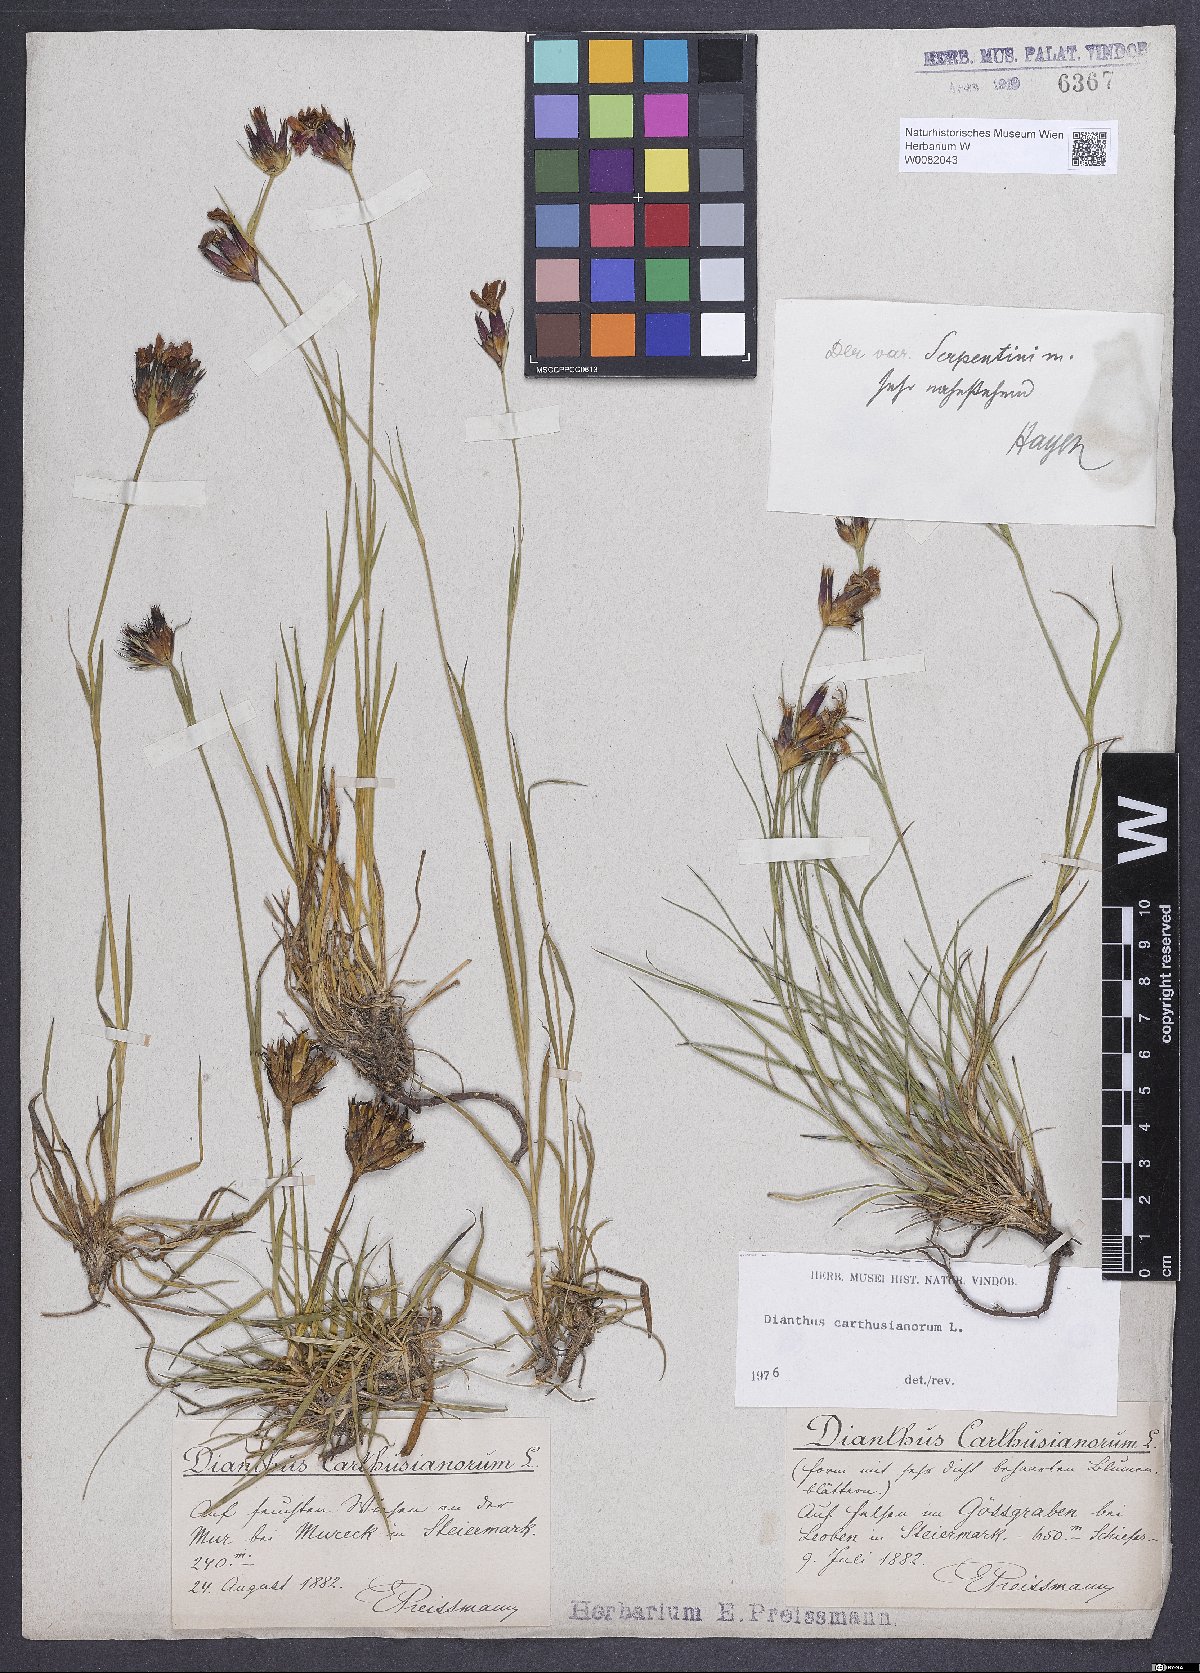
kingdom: Plantae
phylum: Tracheophyta
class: Magnoliopsida
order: Caryophyllales
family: Caryophyllaceae
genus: Dianthus
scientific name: Dianthus carthusianorum
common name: Carthusian pink
